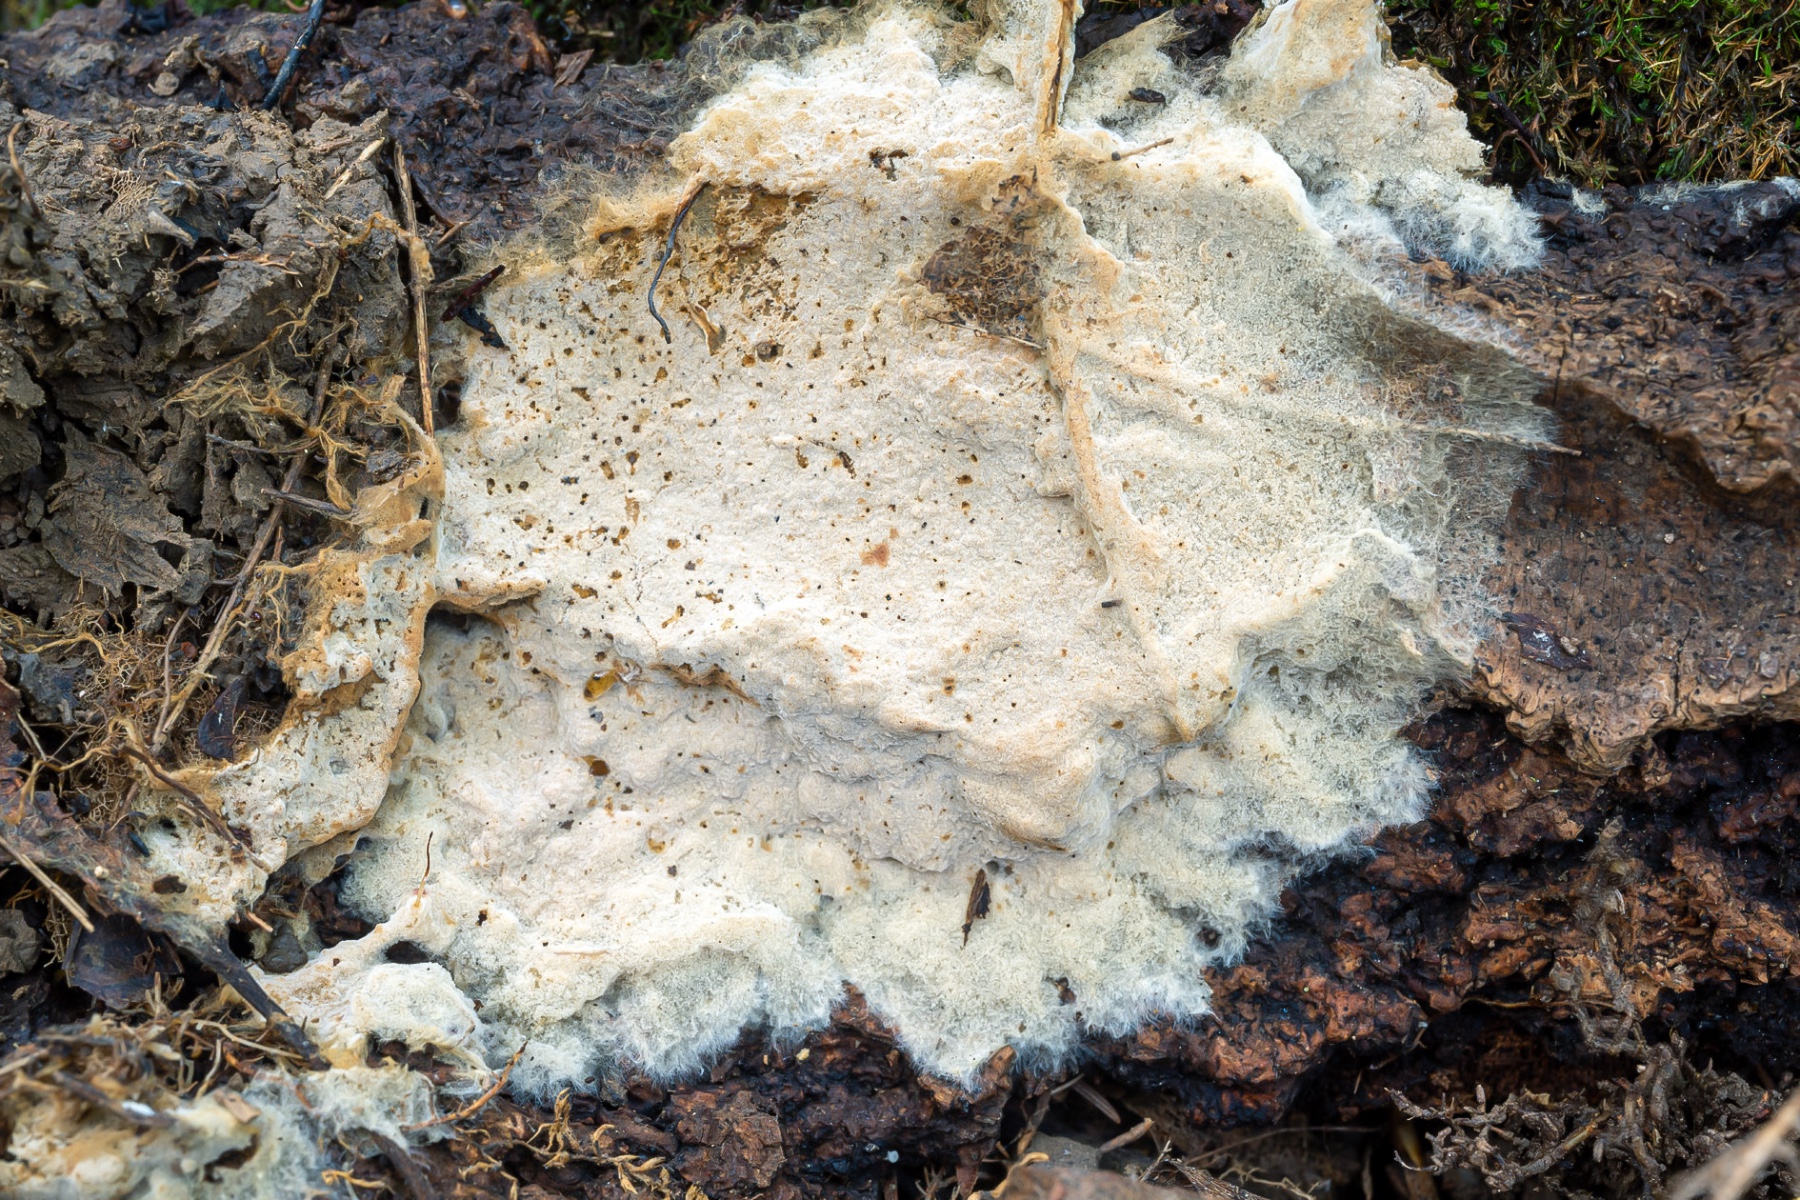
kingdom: Fungi
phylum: Basidiomycota
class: Agaricomycetes
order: Thelephorales
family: Thelephoraceae
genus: Tomentellopsis
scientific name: Tomentellopsis zygodesmoides
